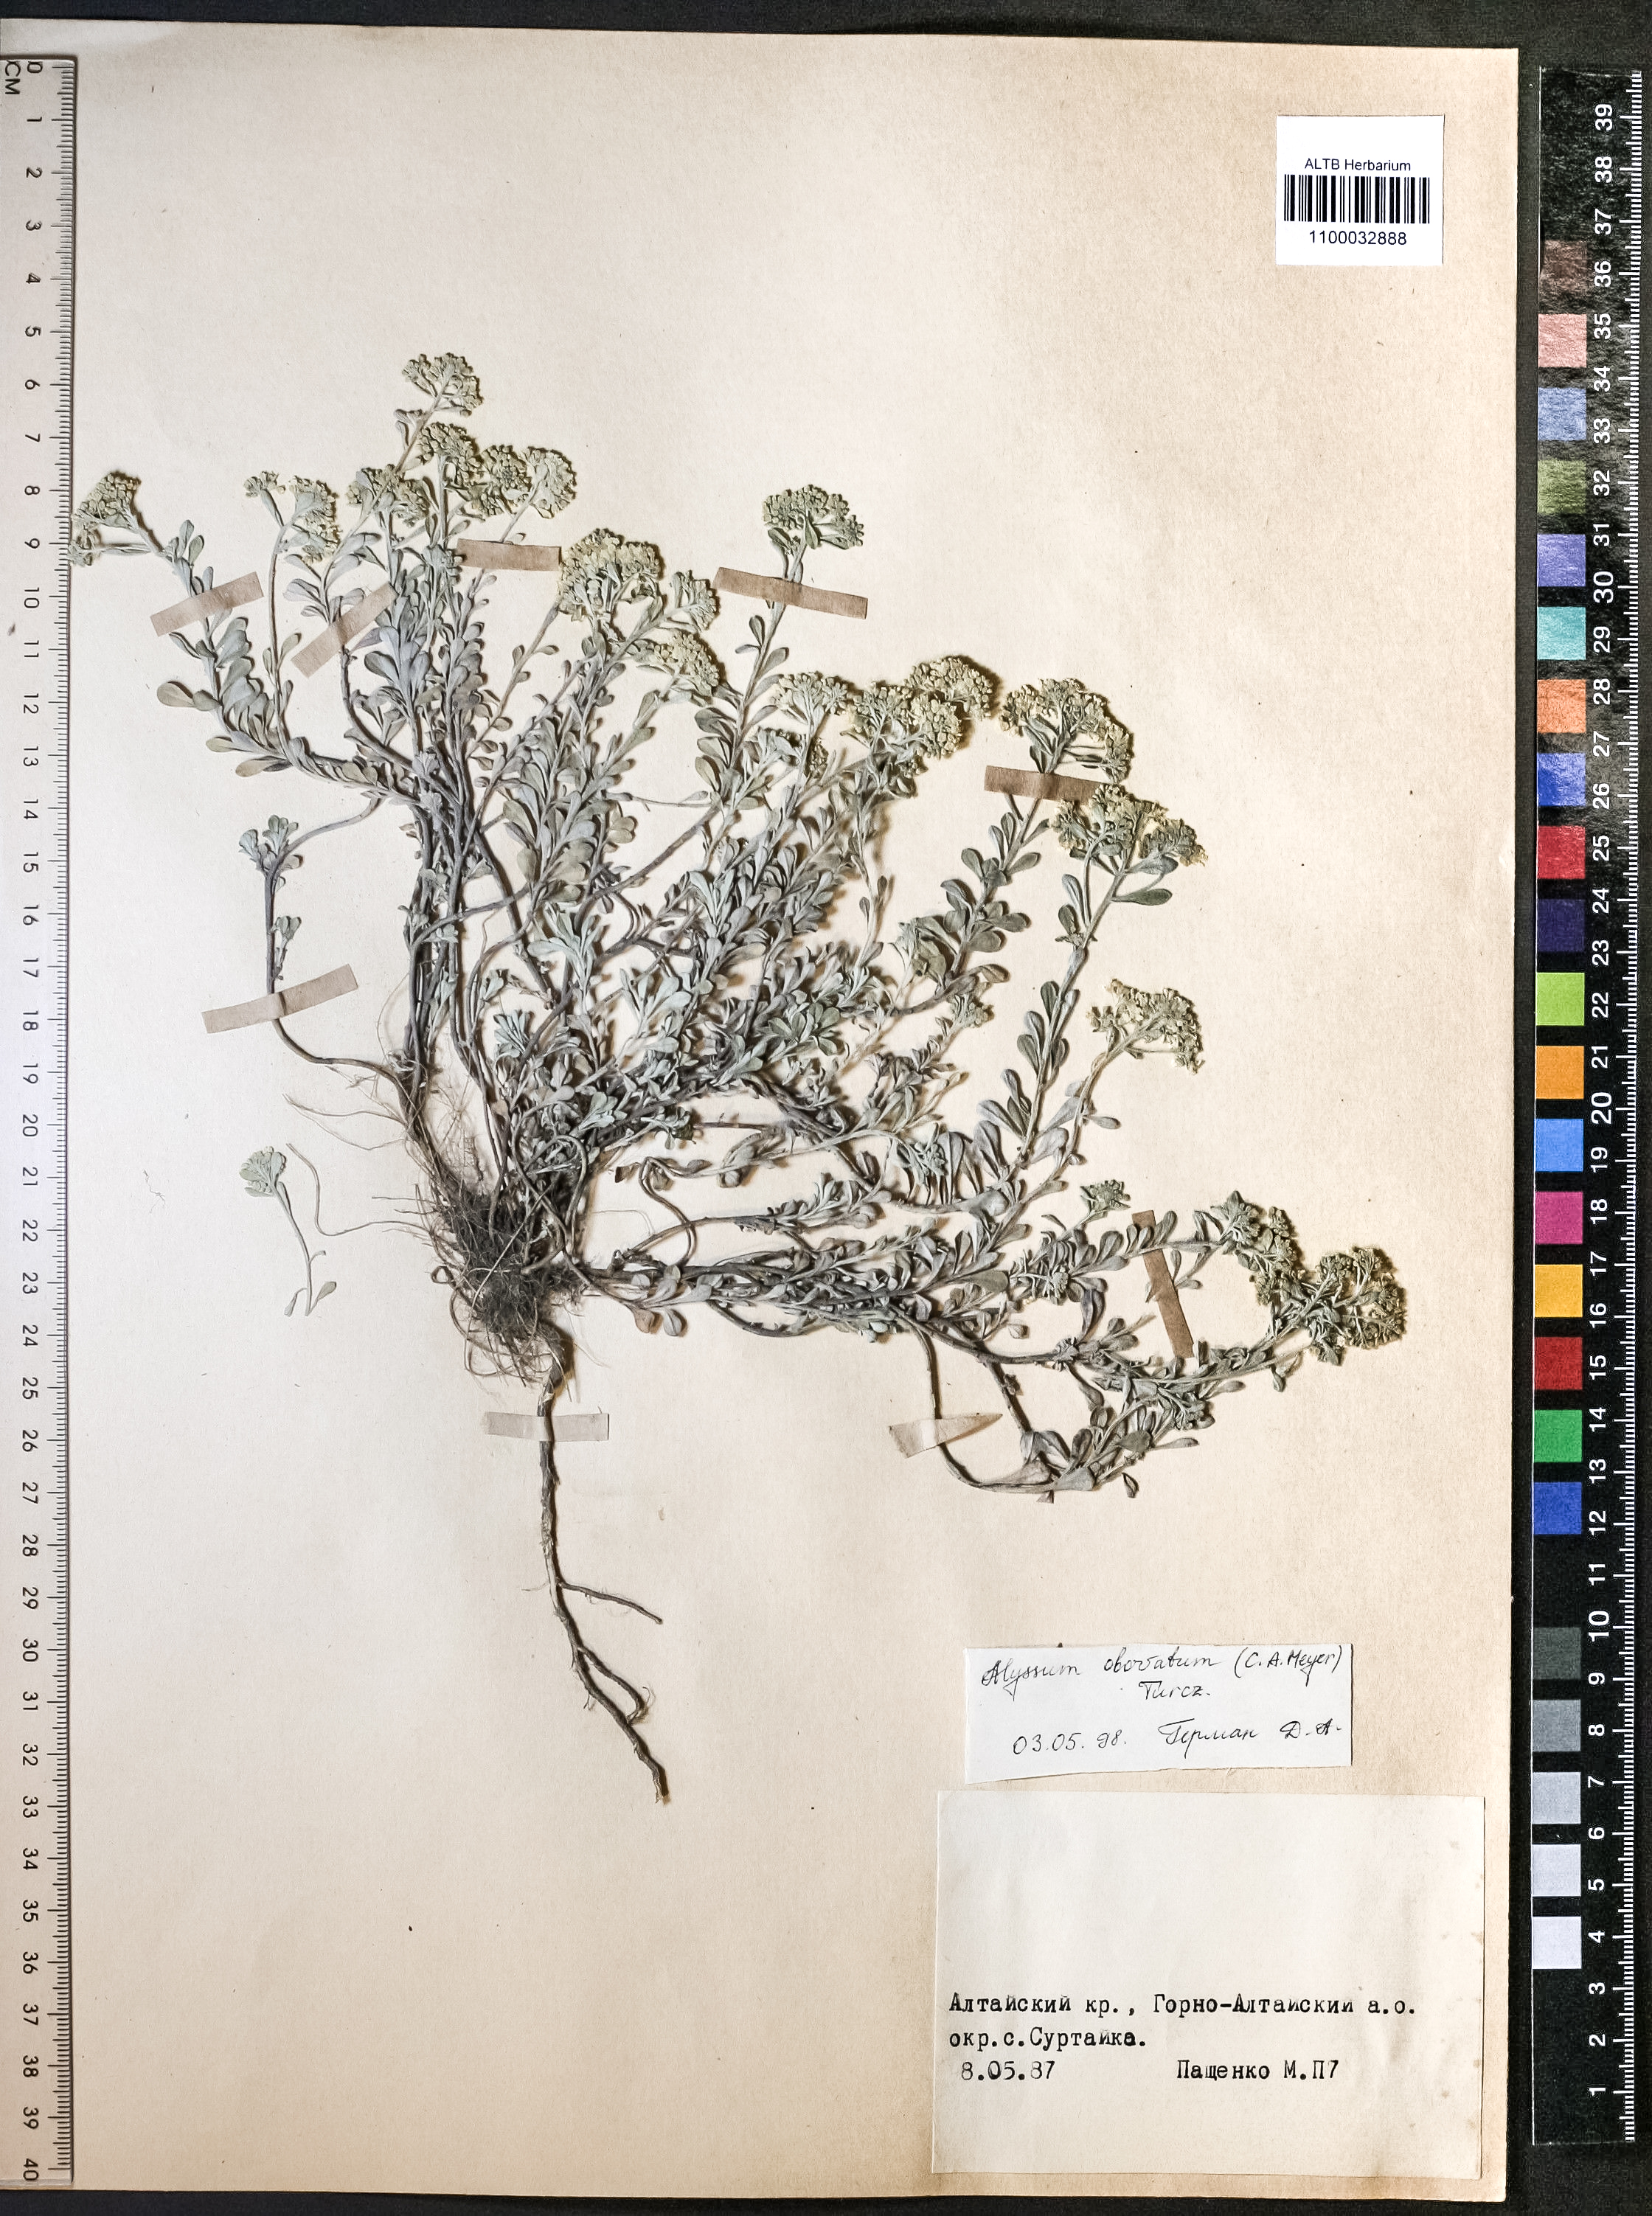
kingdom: Plantae
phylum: Tracheophyta
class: Magnoliopsida
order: Brassicales
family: Brassicaceae
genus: Odontarrhena
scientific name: Odontarrhena obovata
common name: American alyssum
